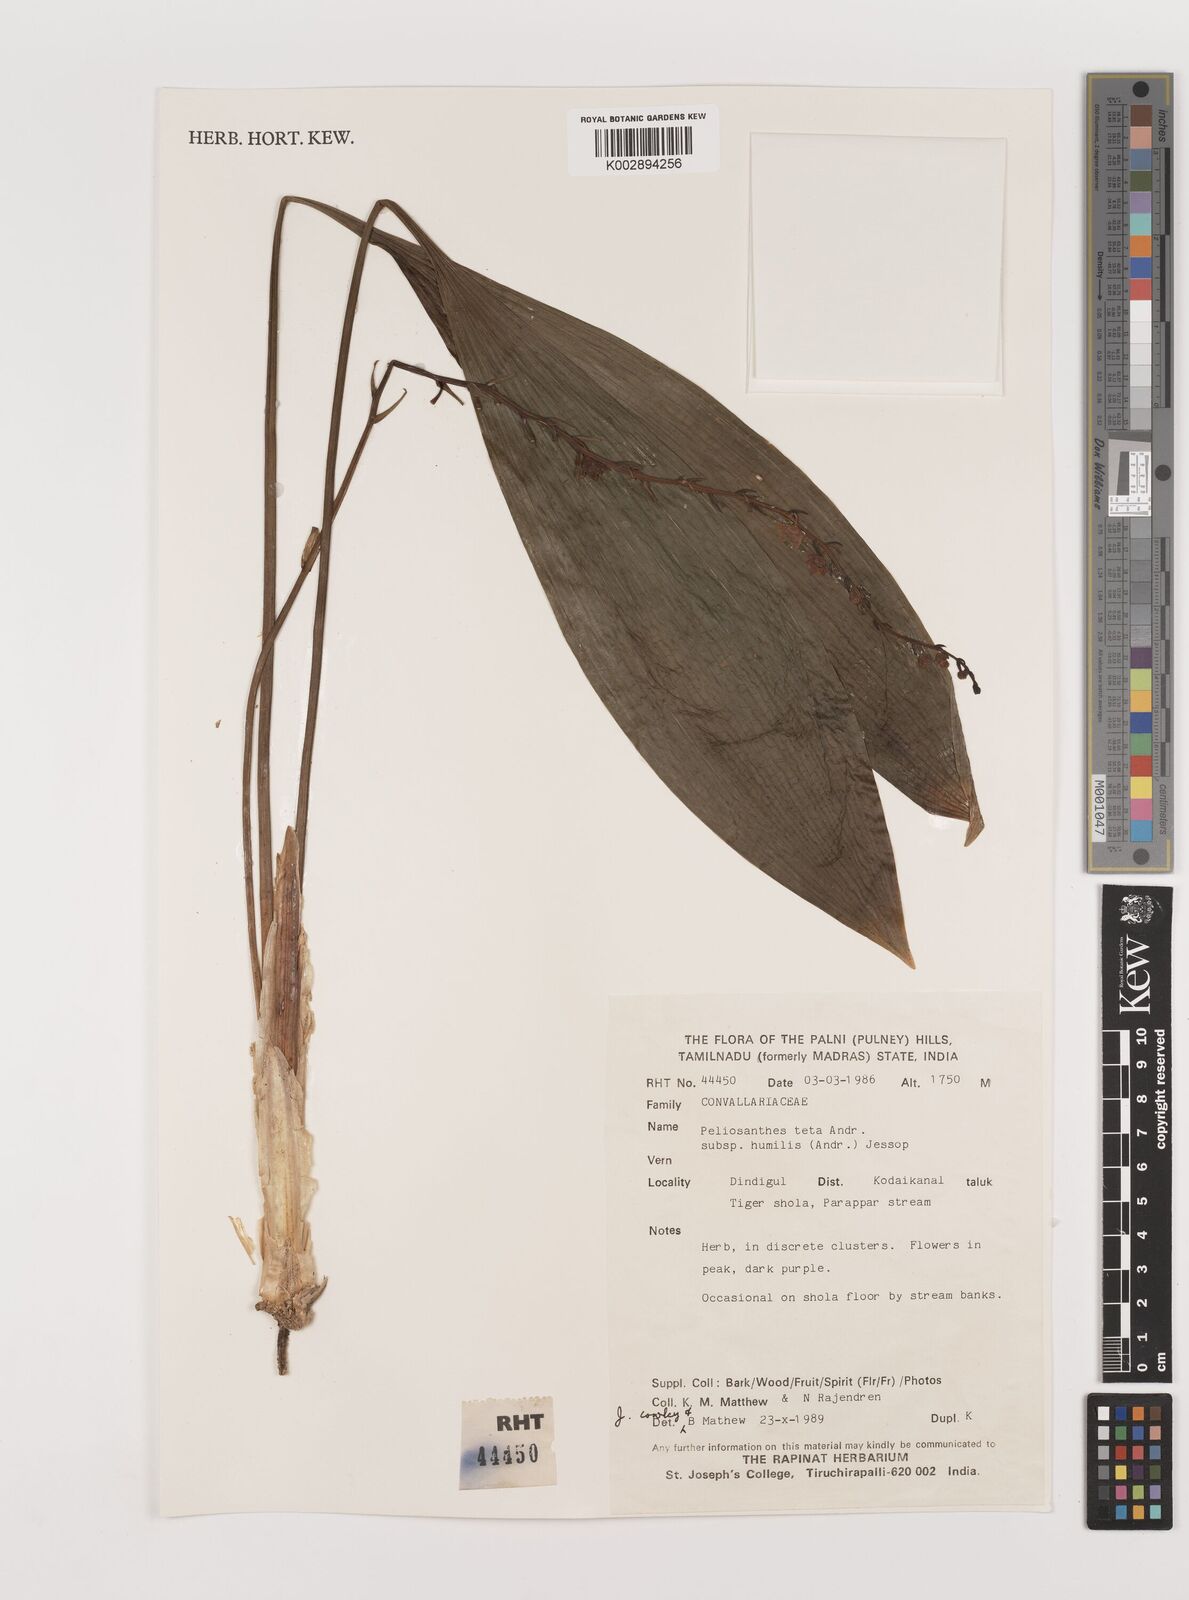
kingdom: Plantae
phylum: Tracheophyta
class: Liliopsida
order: Asparagales
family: Asparagaceae
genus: Peliosanthes
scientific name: Peliosanthes teta
